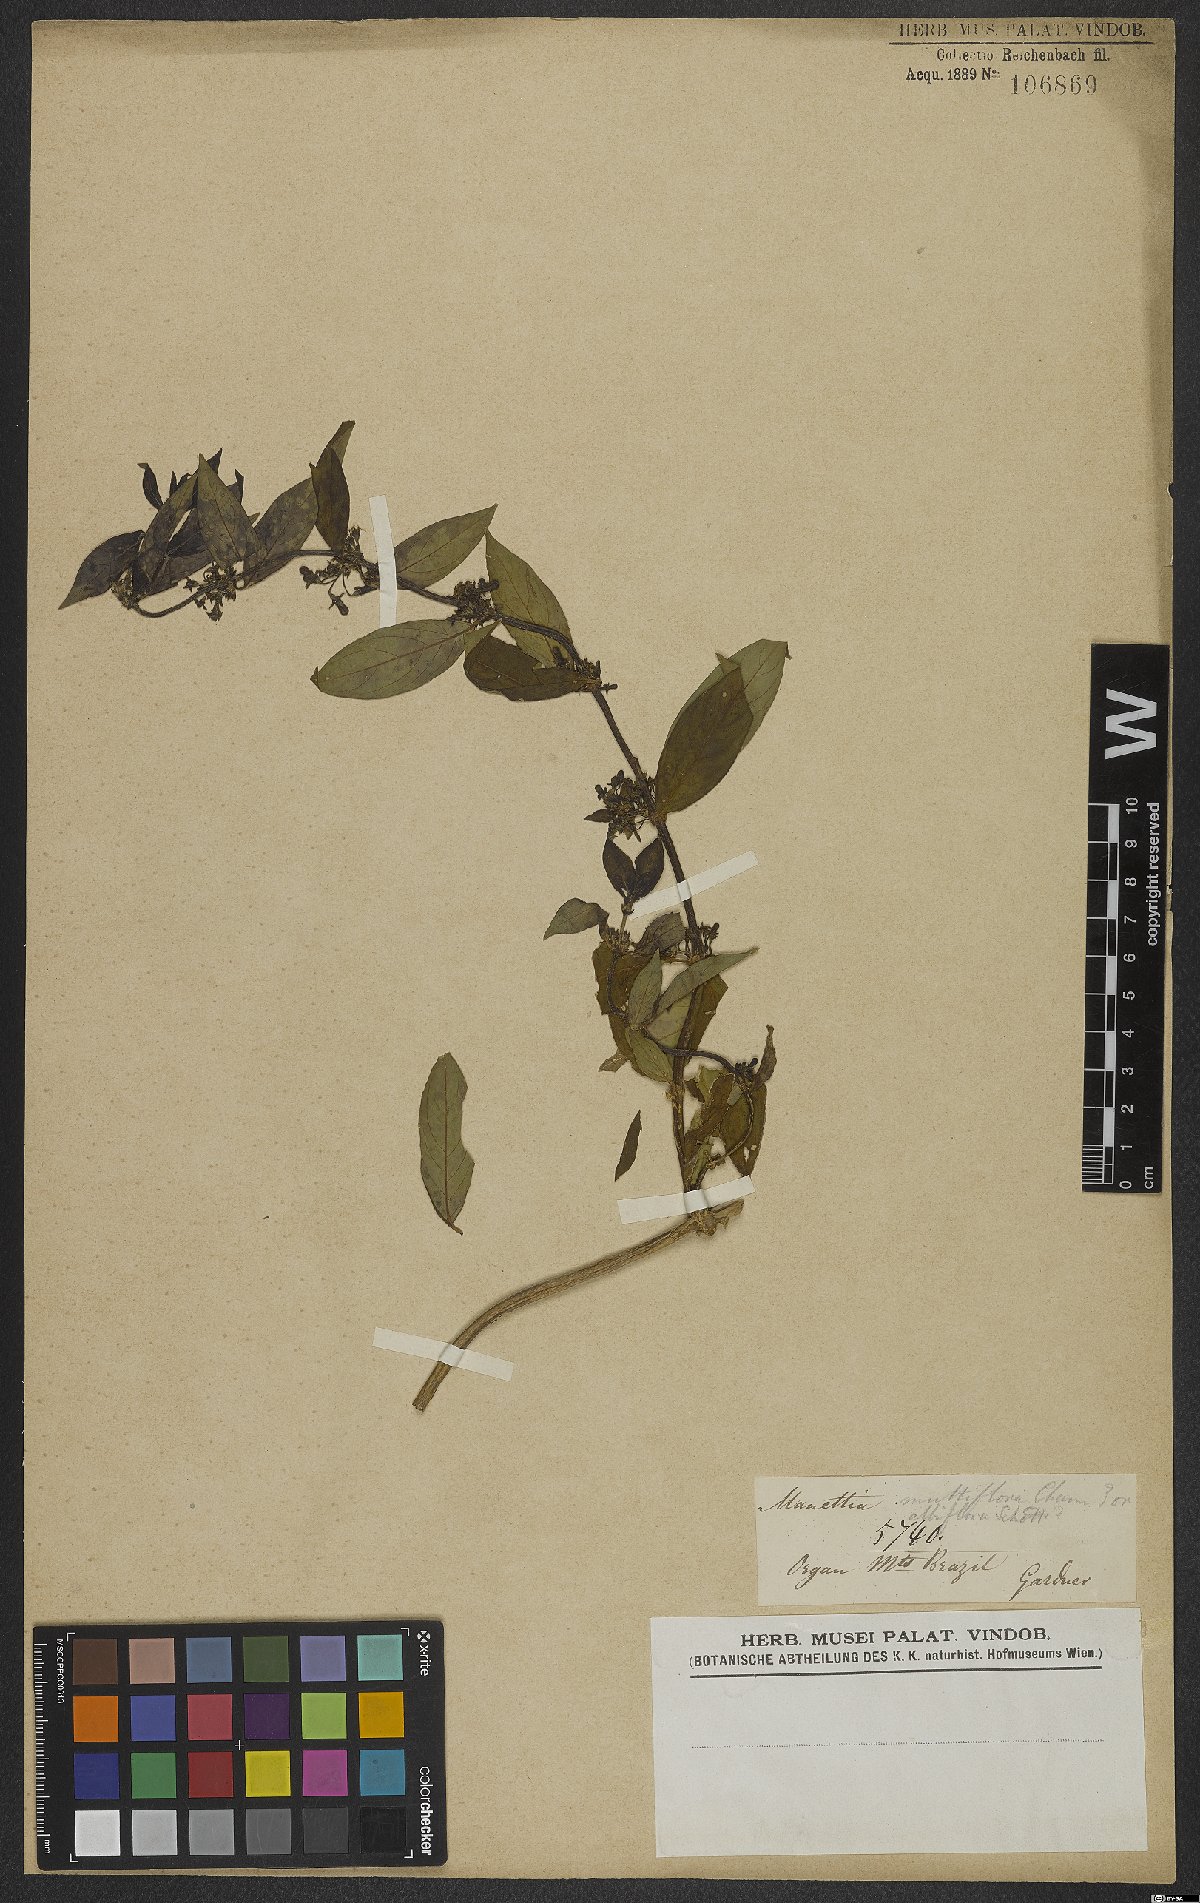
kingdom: Plantae
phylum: Tracheophyta
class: Magnoliopsida
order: Gentianales
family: Rubiaceae
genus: Manettia
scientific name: Manettia congesta
